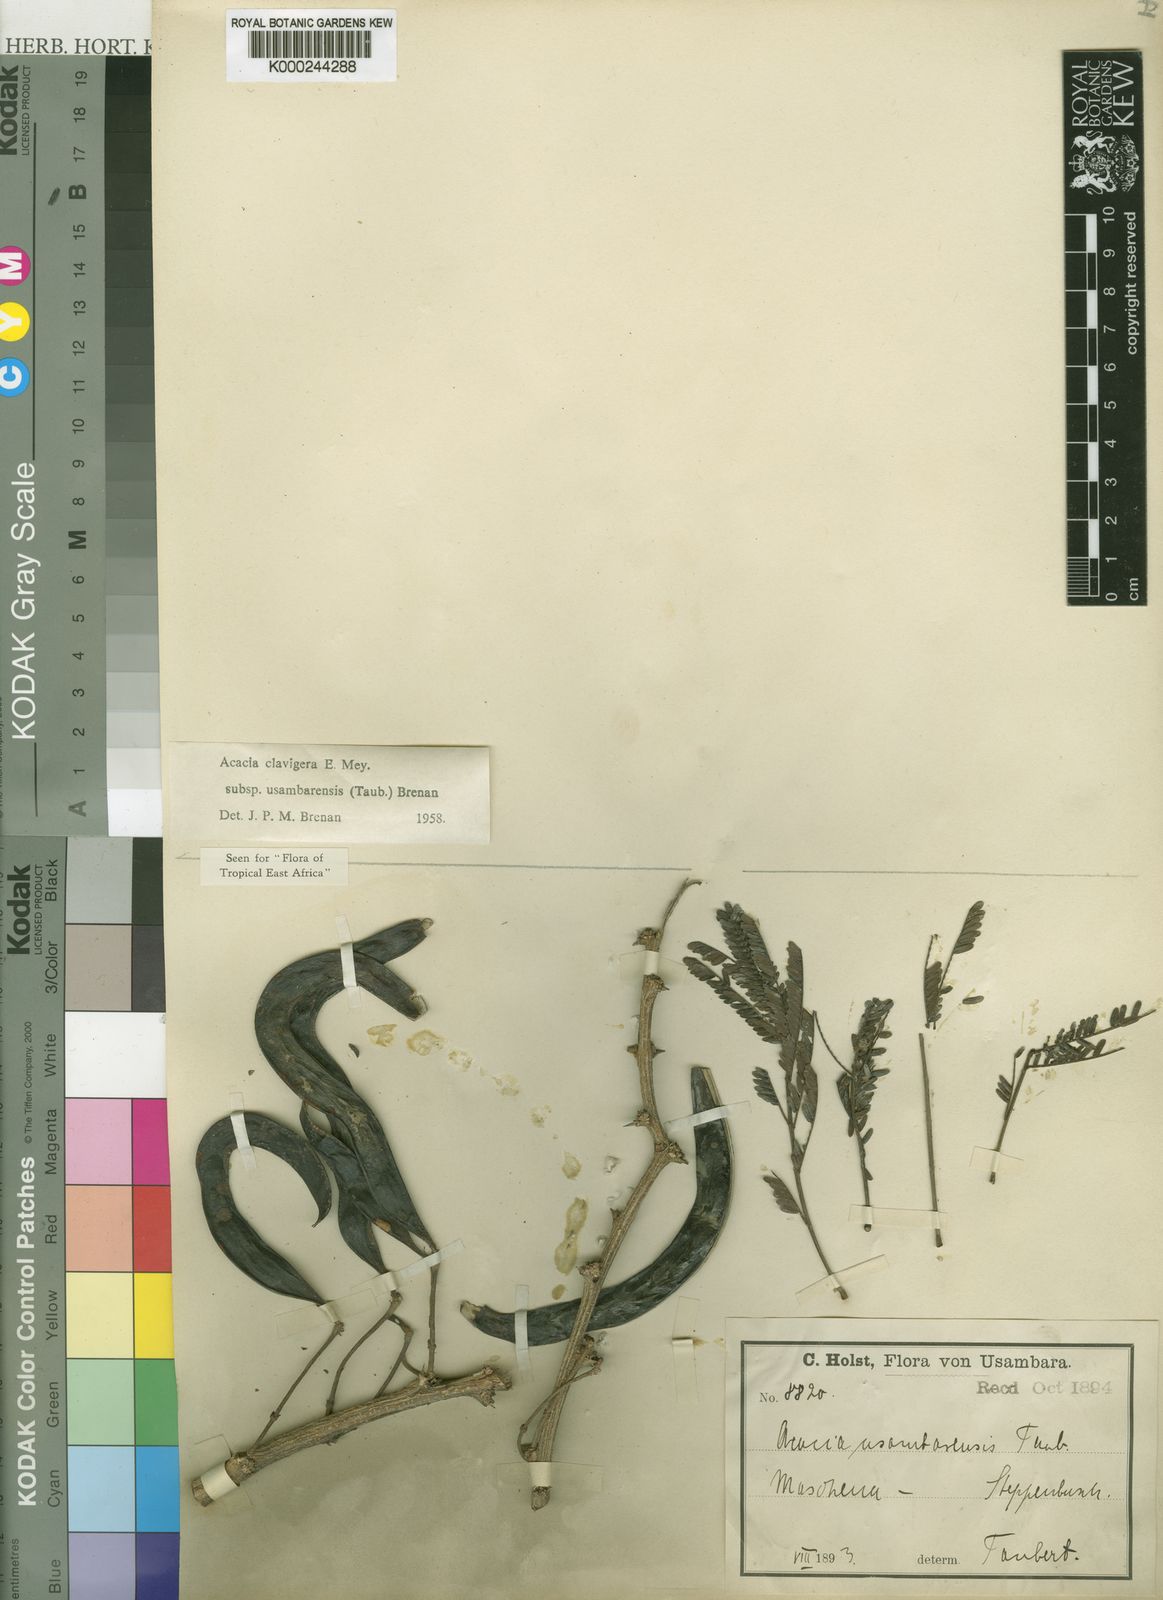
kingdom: Plantae
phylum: Tracheophyta
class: Magnoliopsida
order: Fabales
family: Fabaceae
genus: Vachellia
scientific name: Vachellia robusta
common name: Ankle thorn
